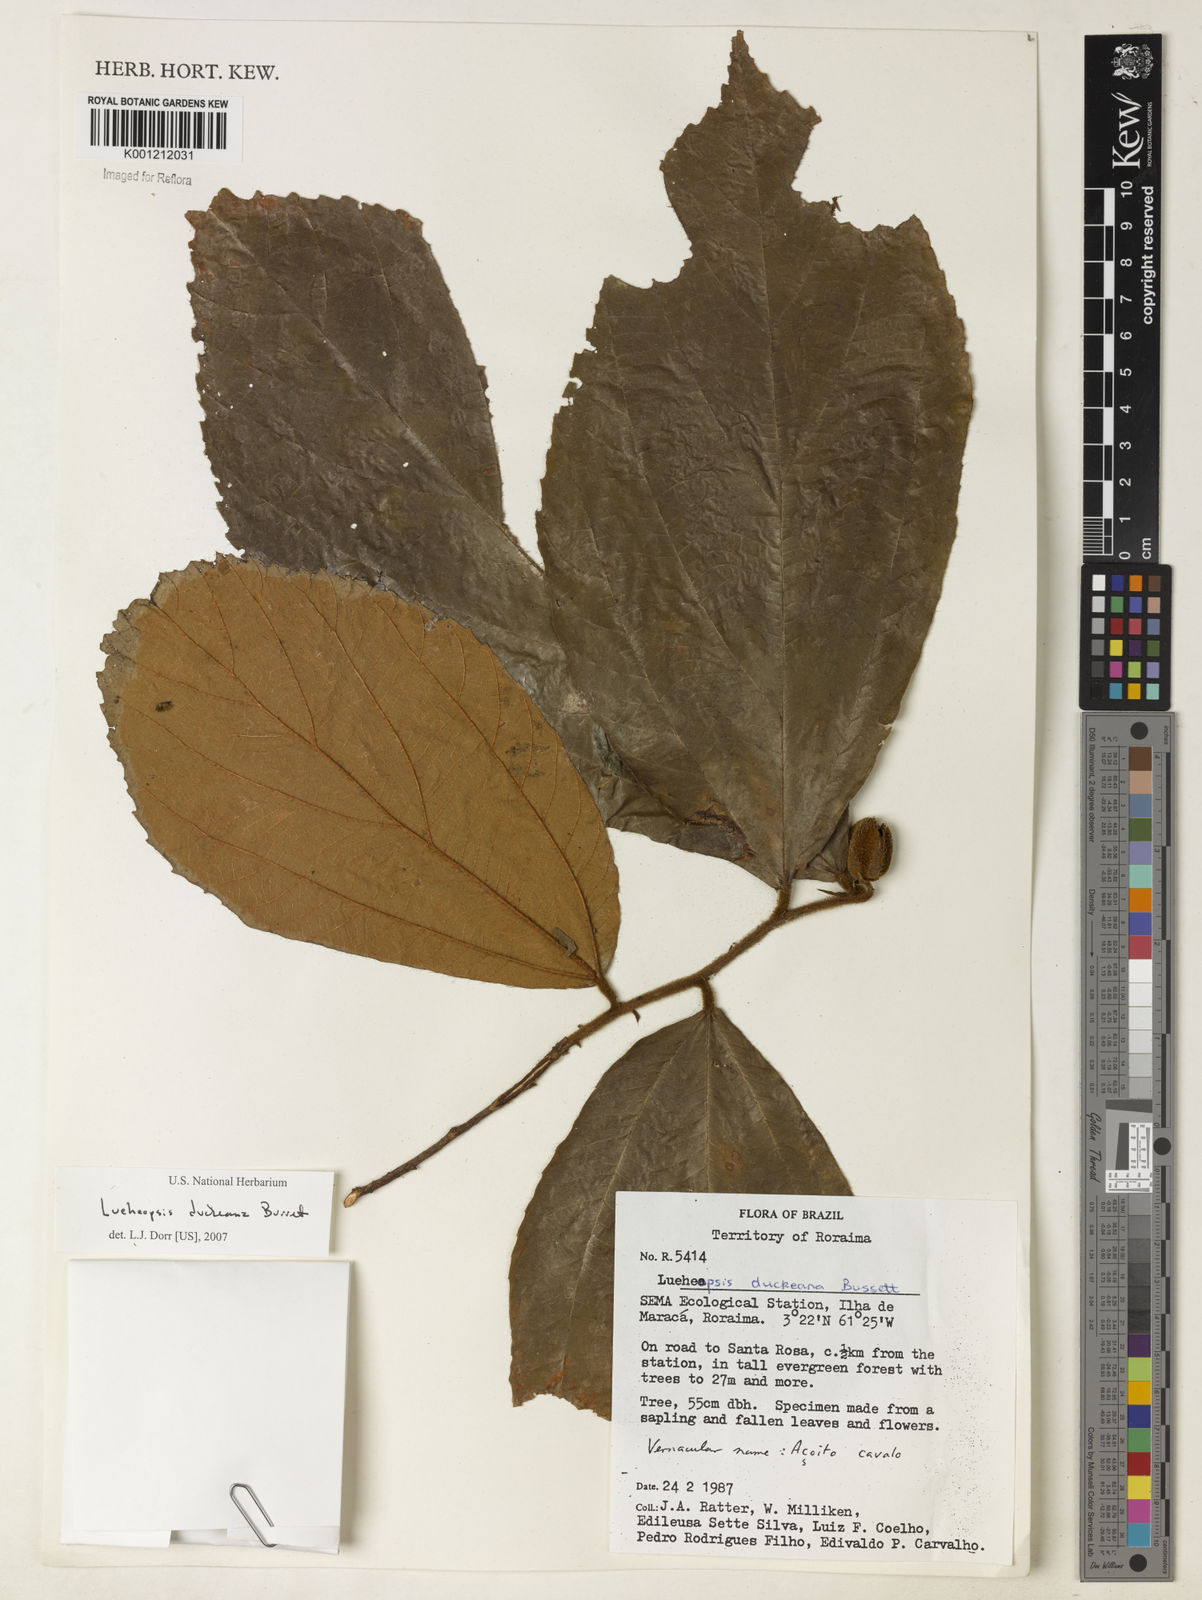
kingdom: Plantae
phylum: Tracheophyta
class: Magnoliopsida
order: Malvales
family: Malvaceae
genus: Lueheopsis
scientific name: Lueheopsis duckeana
